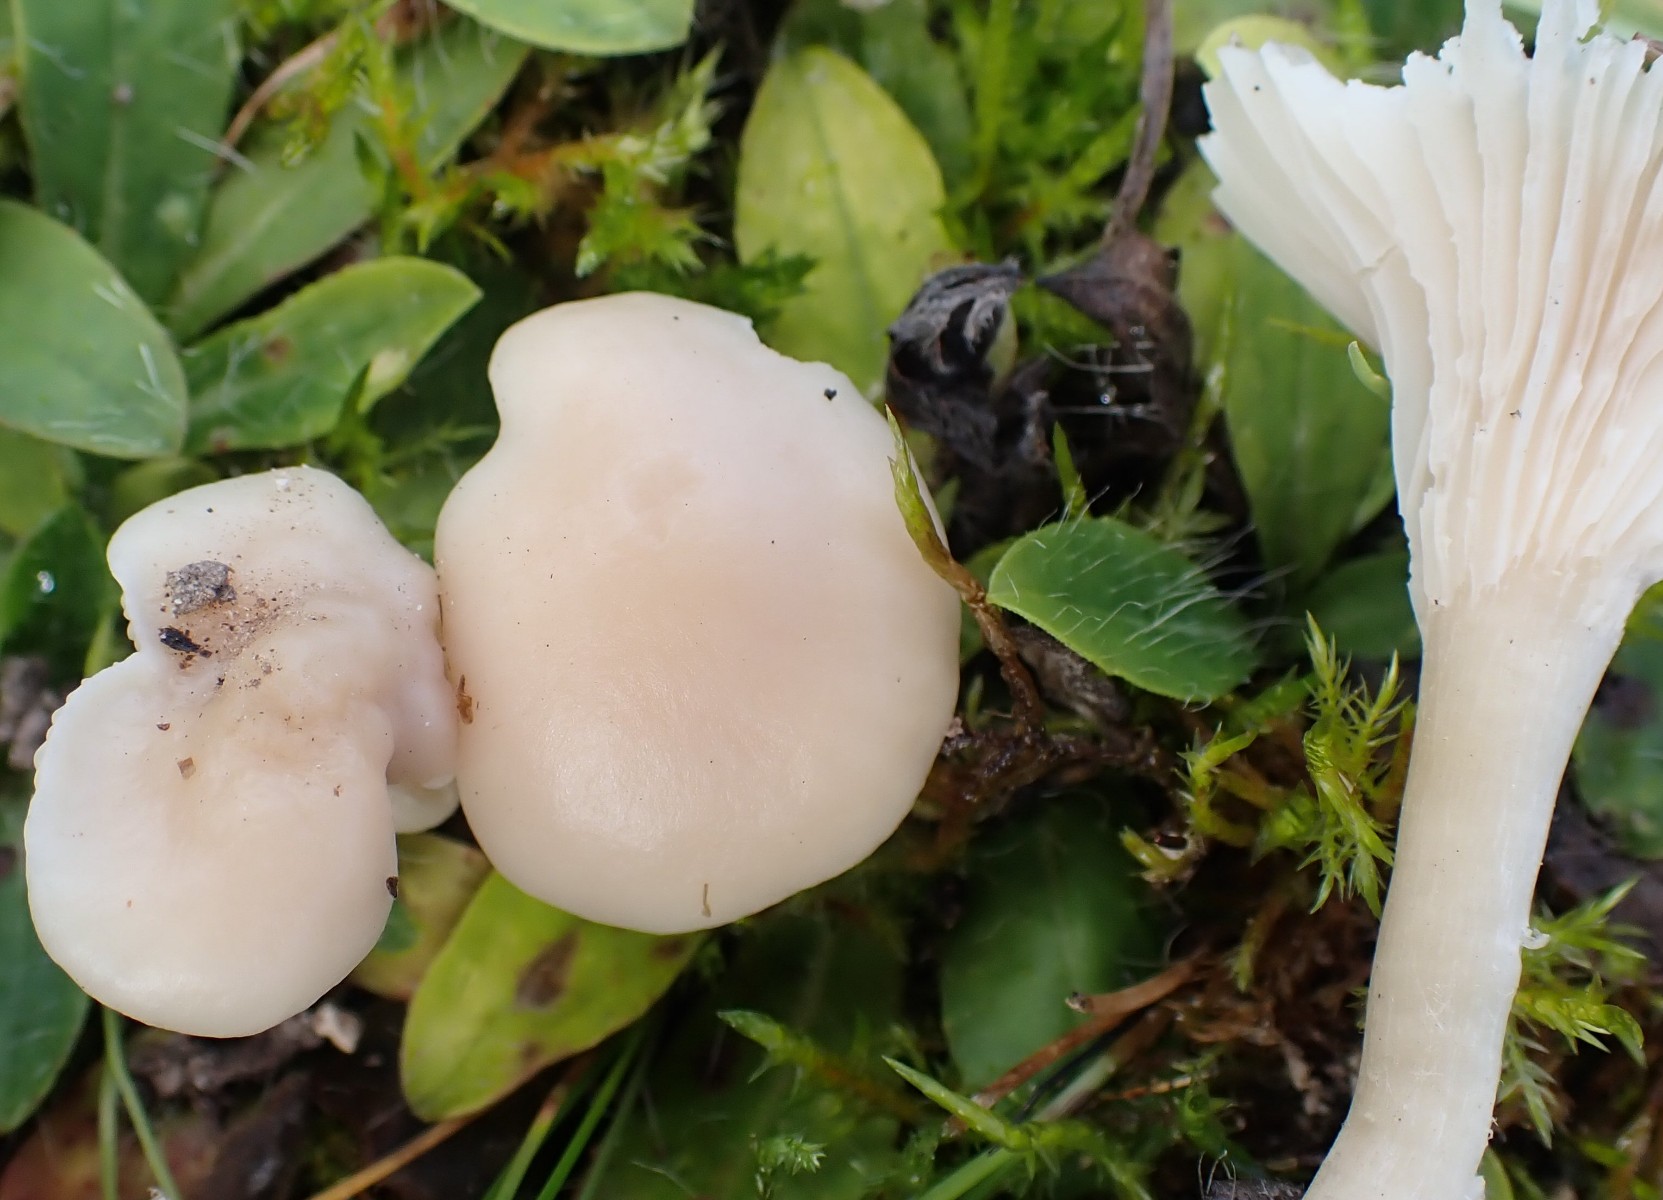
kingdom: Fungi
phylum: Basidiomycota
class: Agaricomycetes
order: Agaricales
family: Hygrophoraceae
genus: Cuphophyllus
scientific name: Cuphophyllus virgineus
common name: isabella-vokshat
